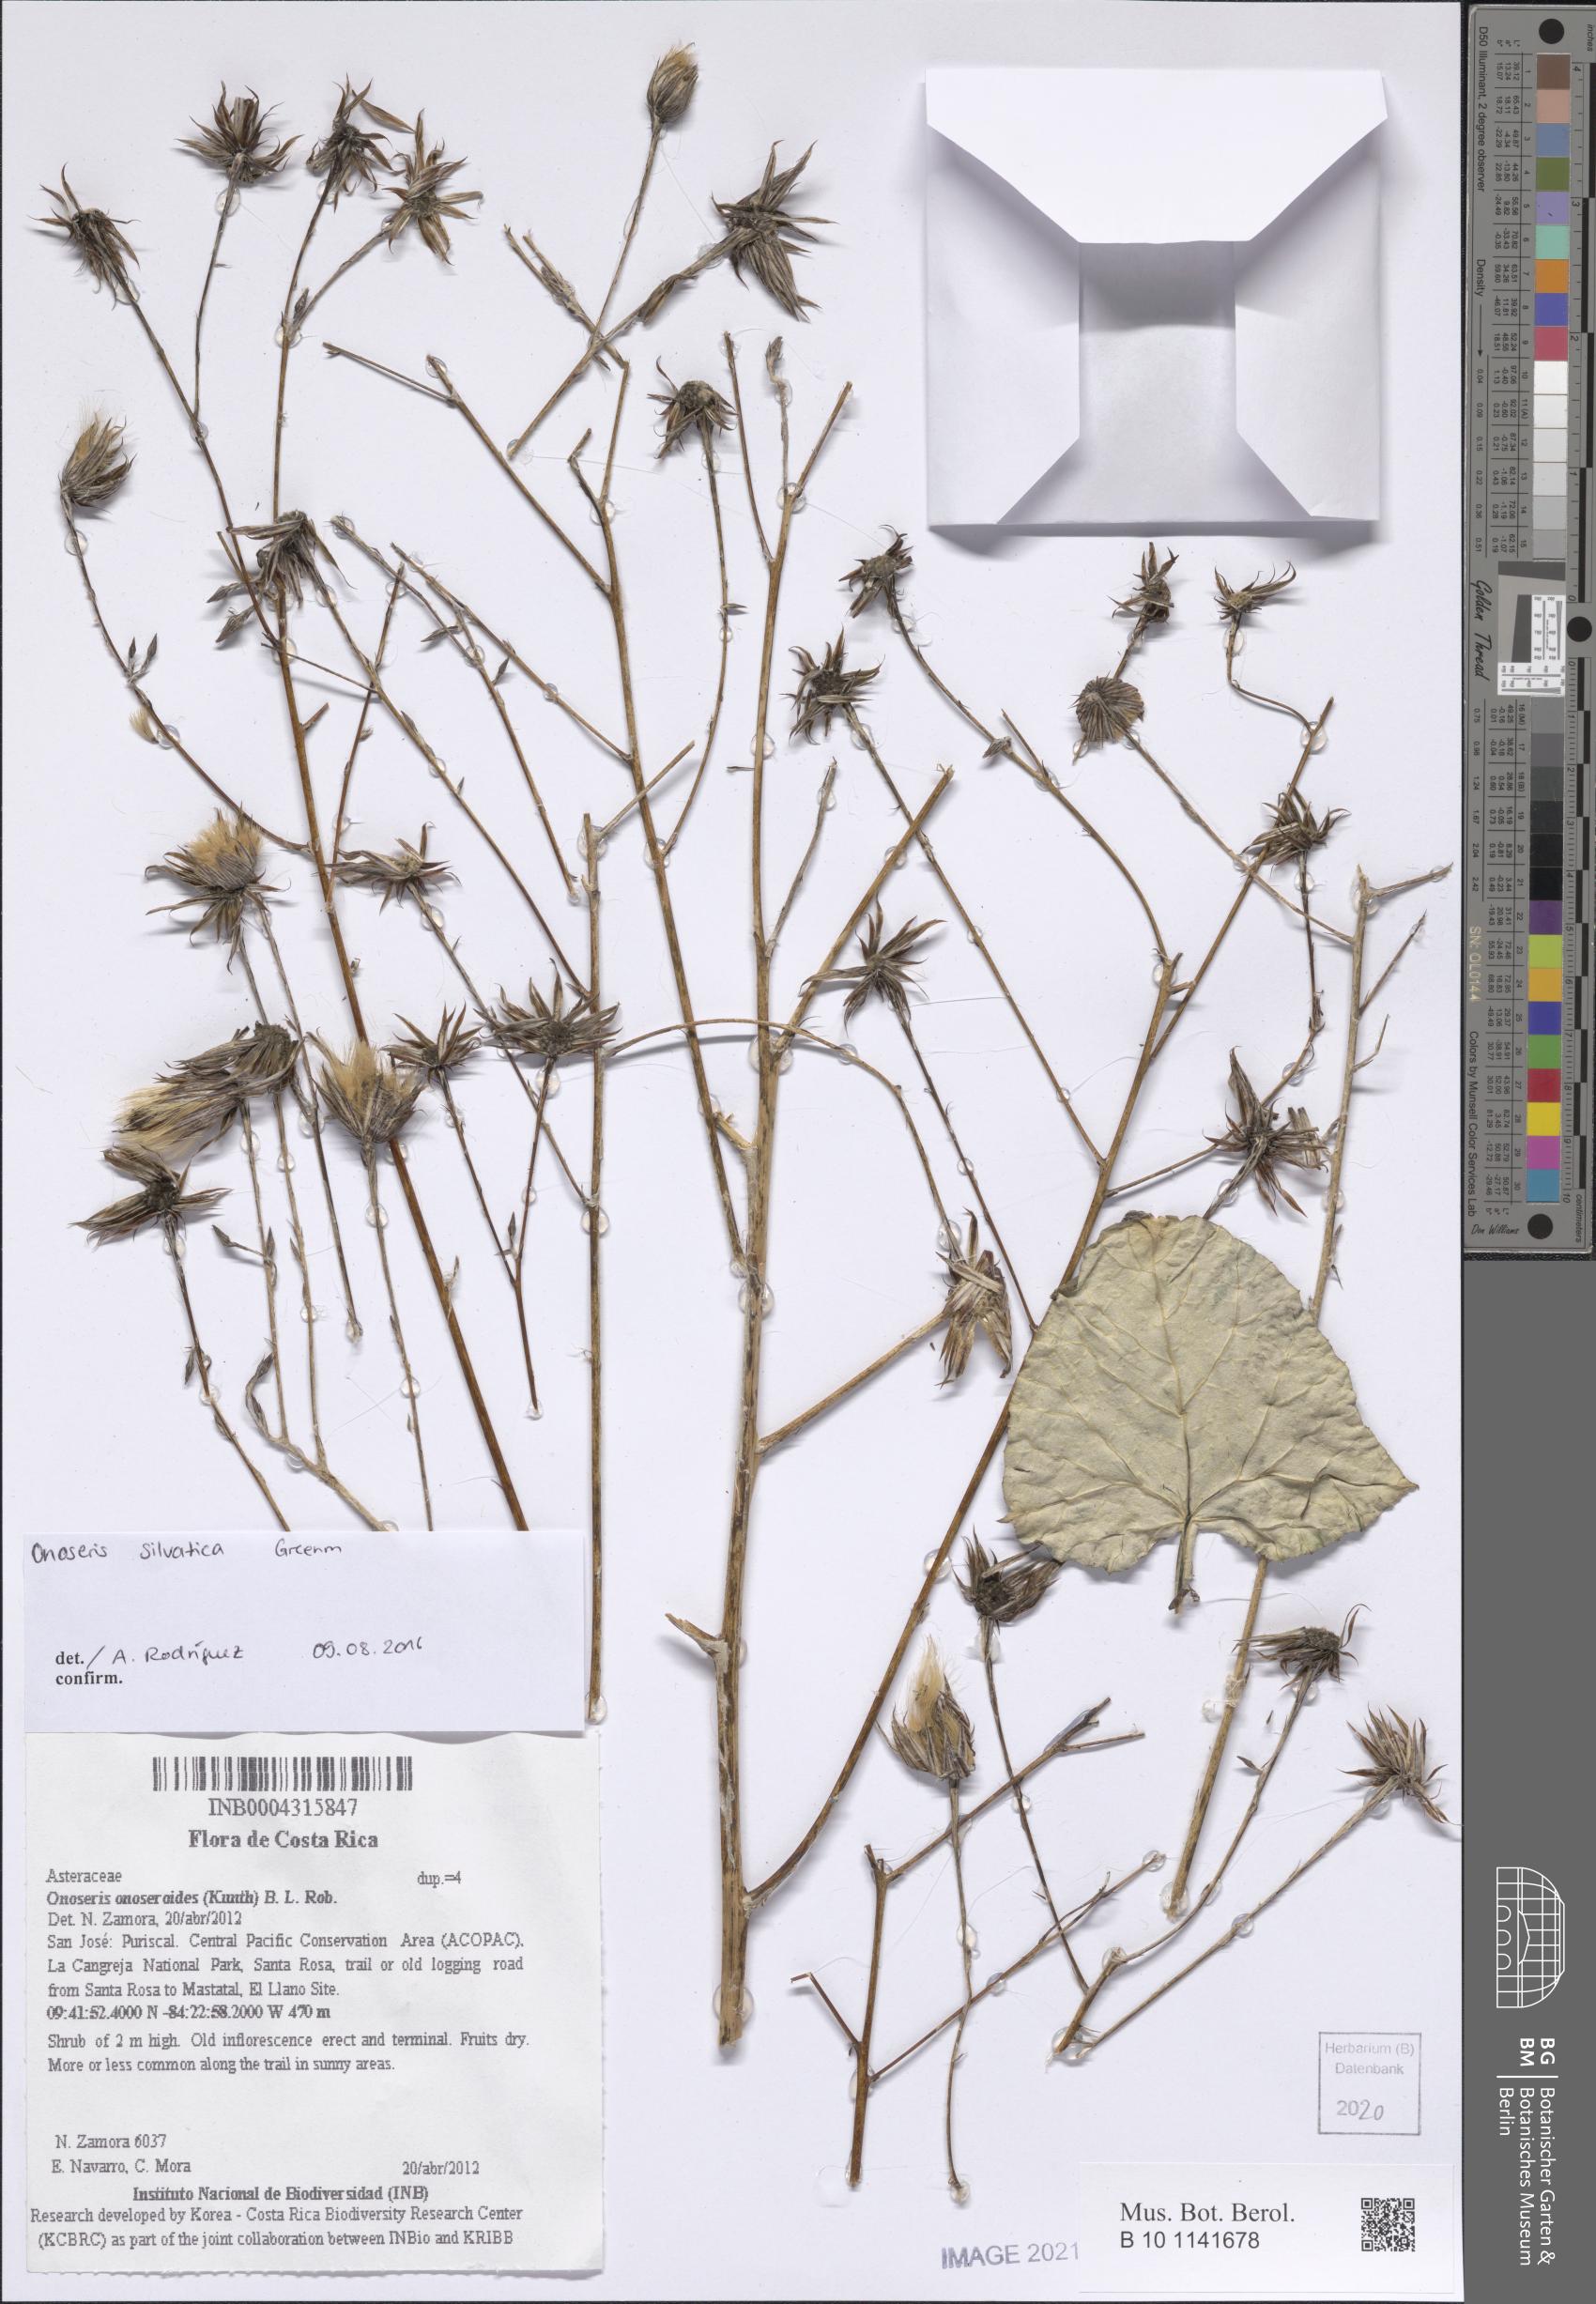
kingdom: Plantae
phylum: Tracheophyta
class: Magnoliopsida
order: Asterales
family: Asteraceae
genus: Onoseris
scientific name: Onoseris onoseroides
